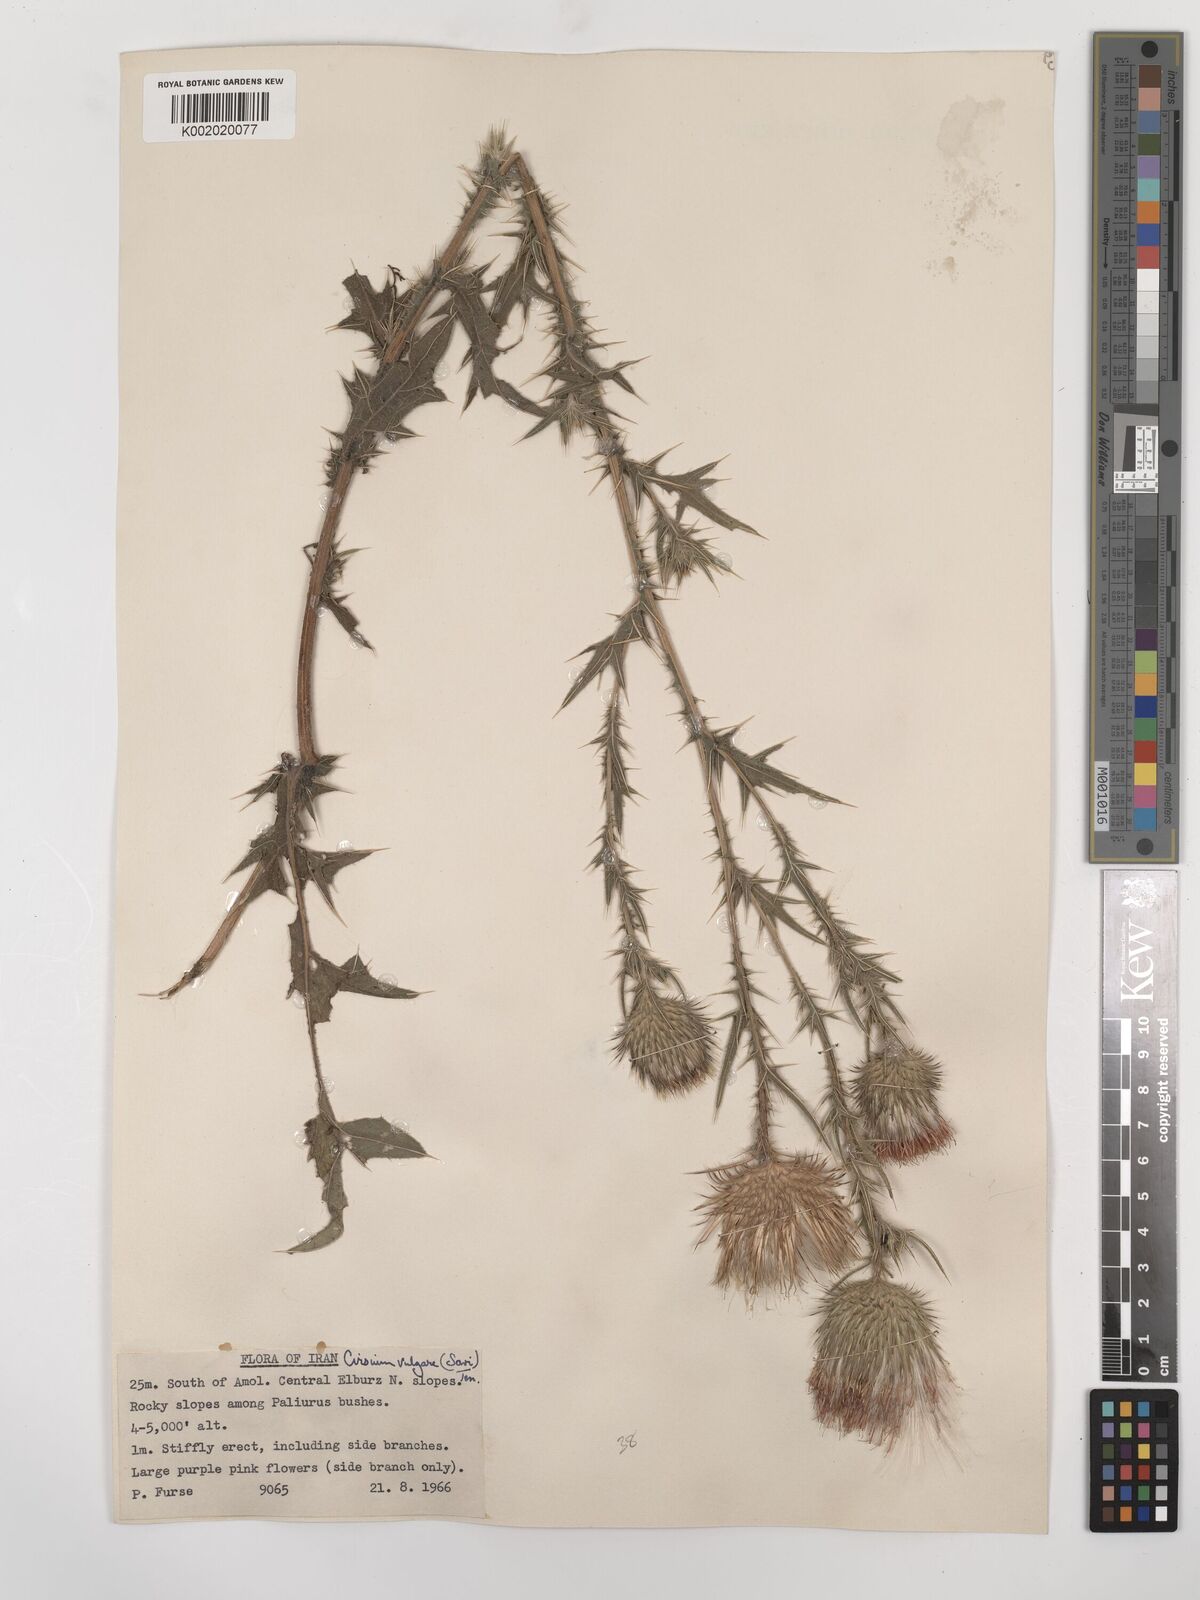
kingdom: Plantae
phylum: Tracheophyta
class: Magnoliopsida
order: Asterales
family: Asteraceae
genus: Cirsium
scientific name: Cirsium vulgare
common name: Bull thistle
